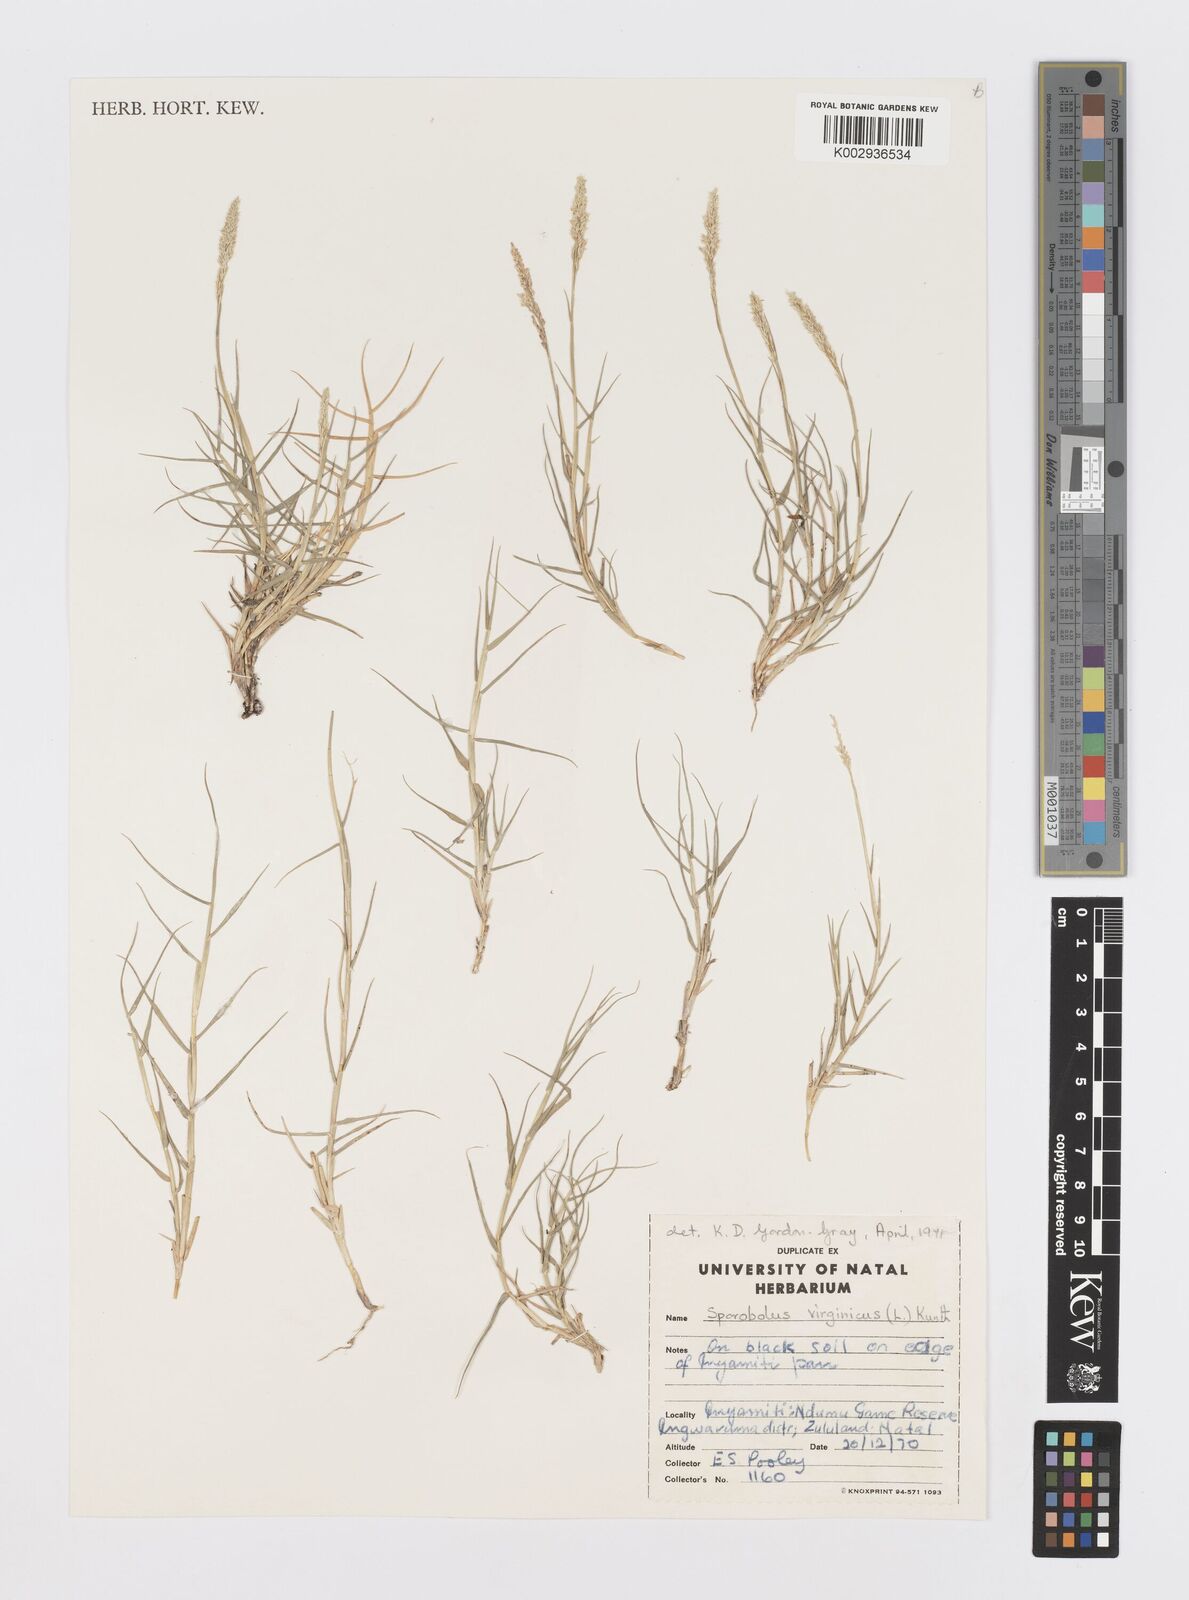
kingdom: Plantae
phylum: Tracheophyta
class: Liliopsida
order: Poales
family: Poaceae
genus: Sporobolus
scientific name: Sporobolus virginicus
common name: Beach dropseed
